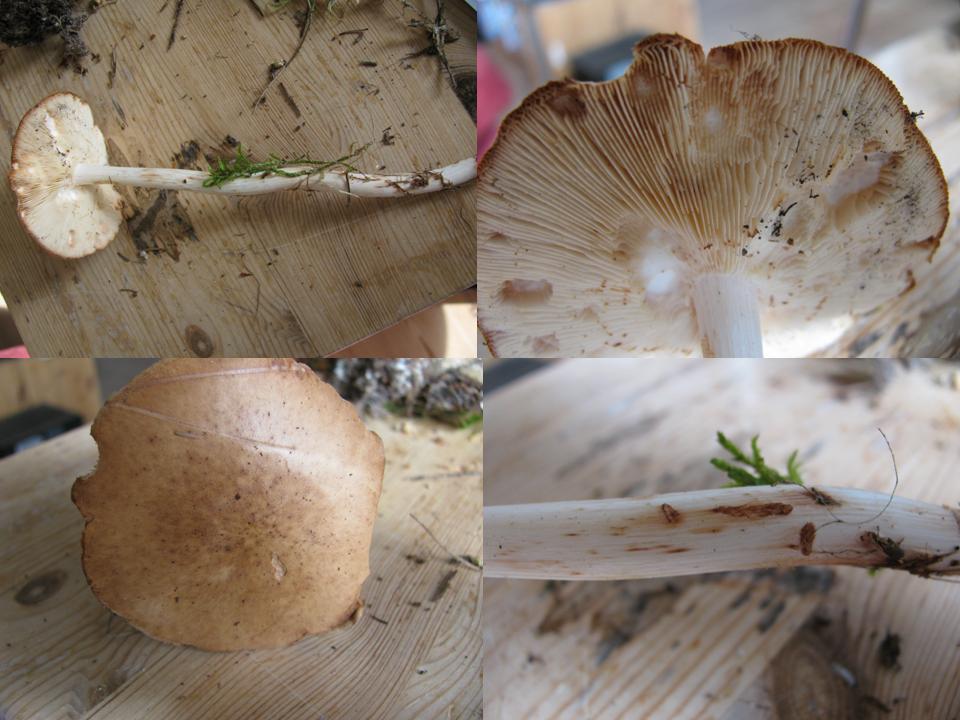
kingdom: Fungi
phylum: Basidiomycota
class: Agaricomycetes
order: Agaricales
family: Omphalotaceae
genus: Rhodocollybia
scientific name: Rhodocollybia maculata
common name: plettet fladhat
